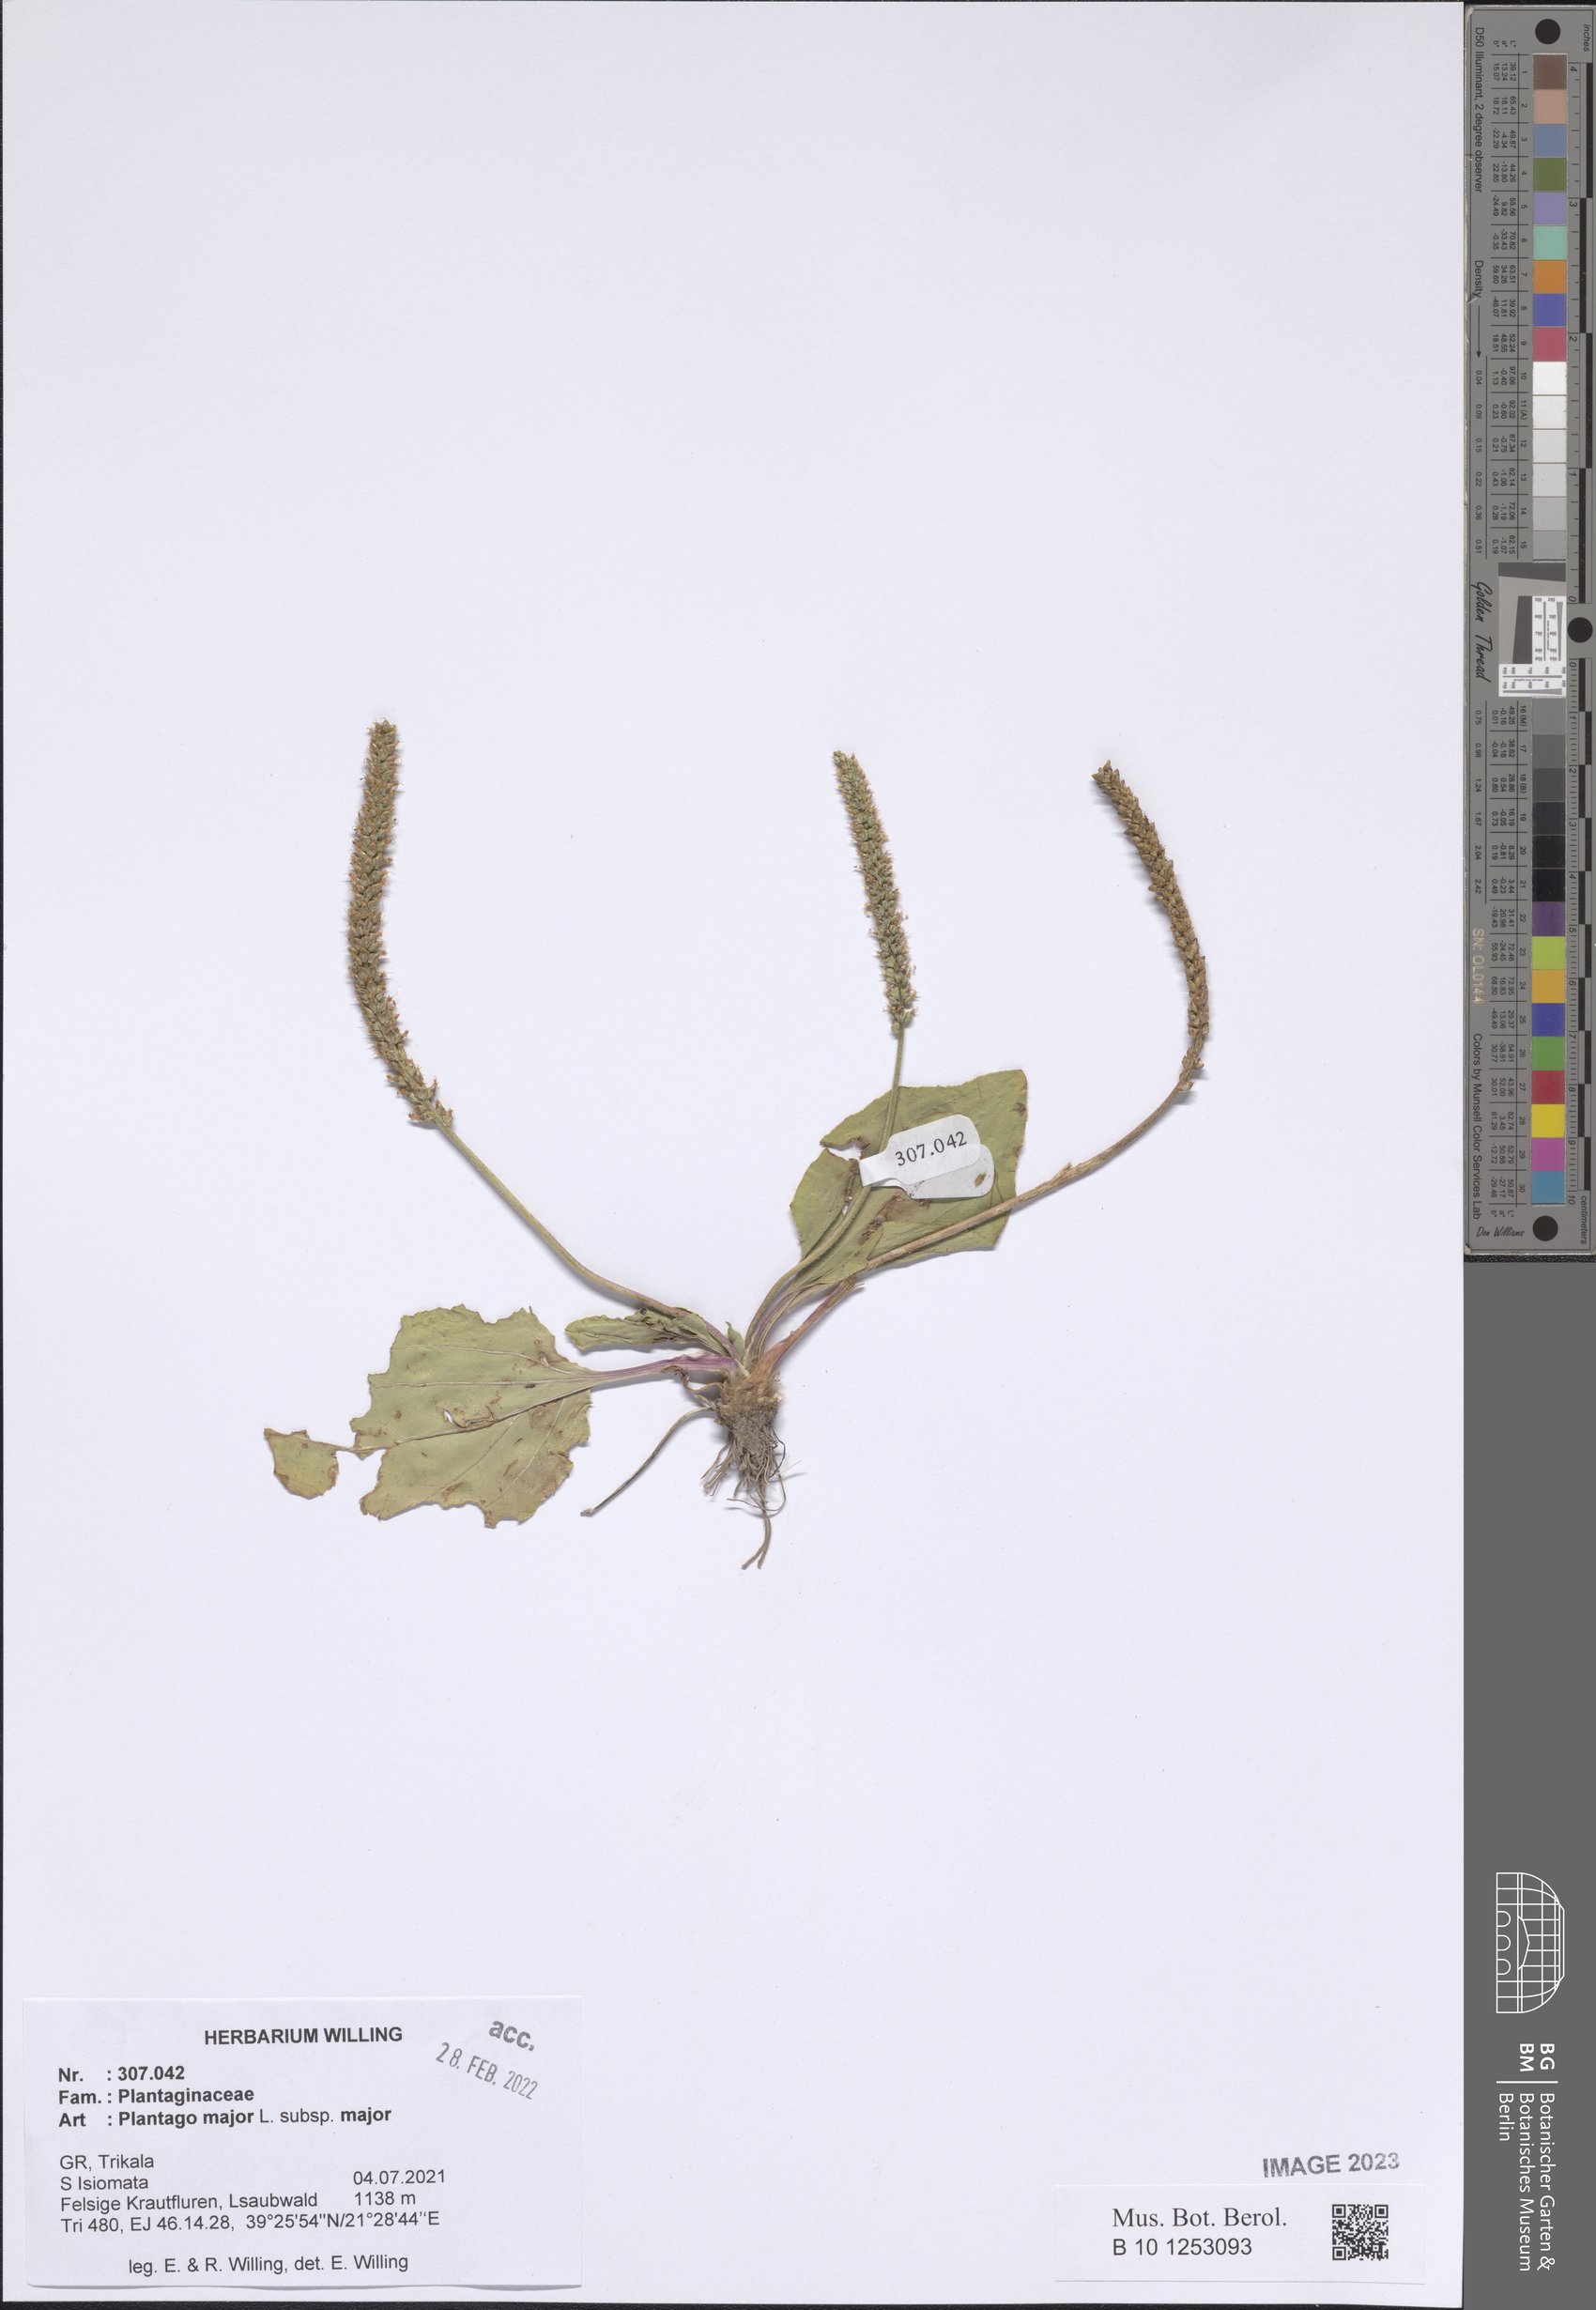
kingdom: Plantae
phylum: Tracheophyta
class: Magnoliopsida
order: Lamiales
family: Plantaginaceae
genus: Plantago
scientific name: Plantago major
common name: Common plantain
